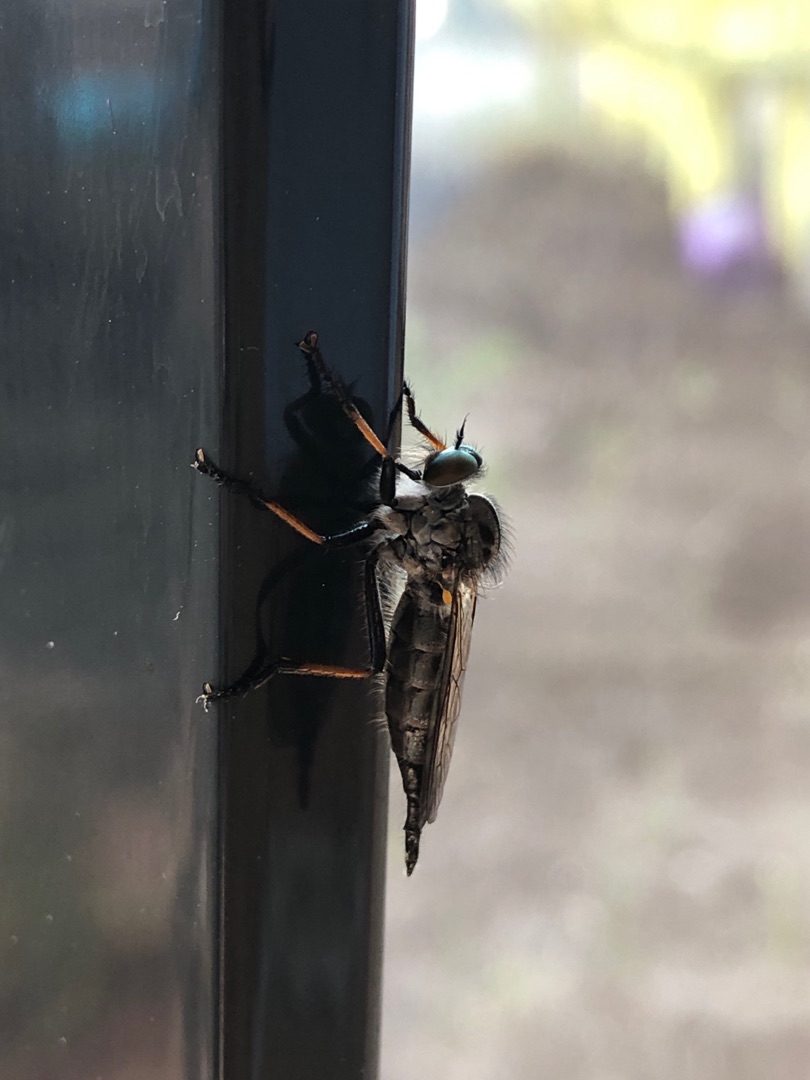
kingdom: Animalia
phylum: Arthropoda
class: Insecta
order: Diptera
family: Asilidae
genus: Neoitamus
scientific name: Neoitamus cyanurus
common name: Sortfodet skovrovflue
